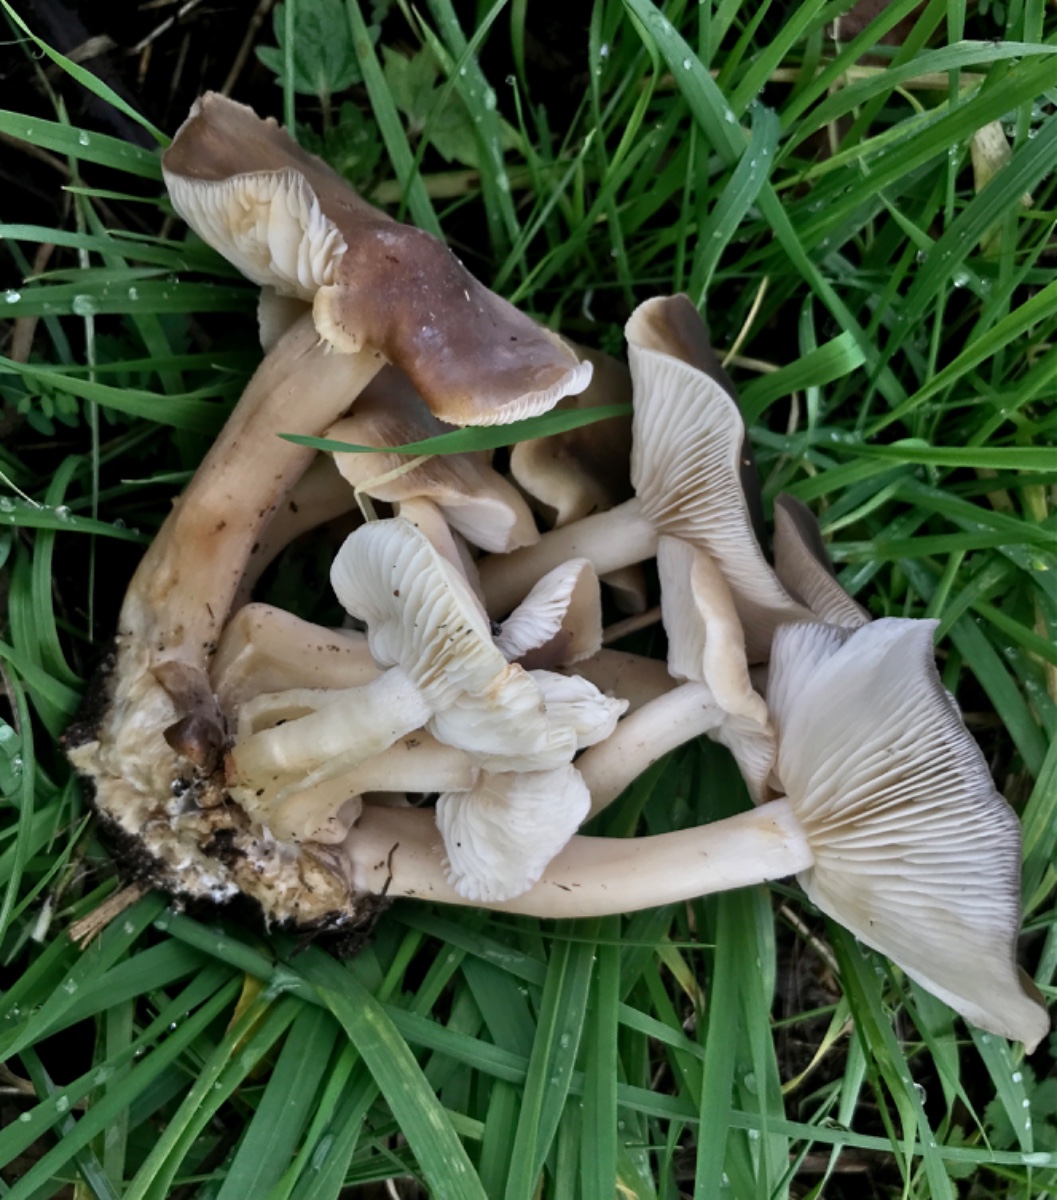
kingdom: Fungi
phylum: Basidiomycota
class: Agaricomycetes
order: Agaricales
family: Lyophyllaceae
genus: Lyophyllum
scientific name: Lyophyllum decastes
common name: Clustered domecap
